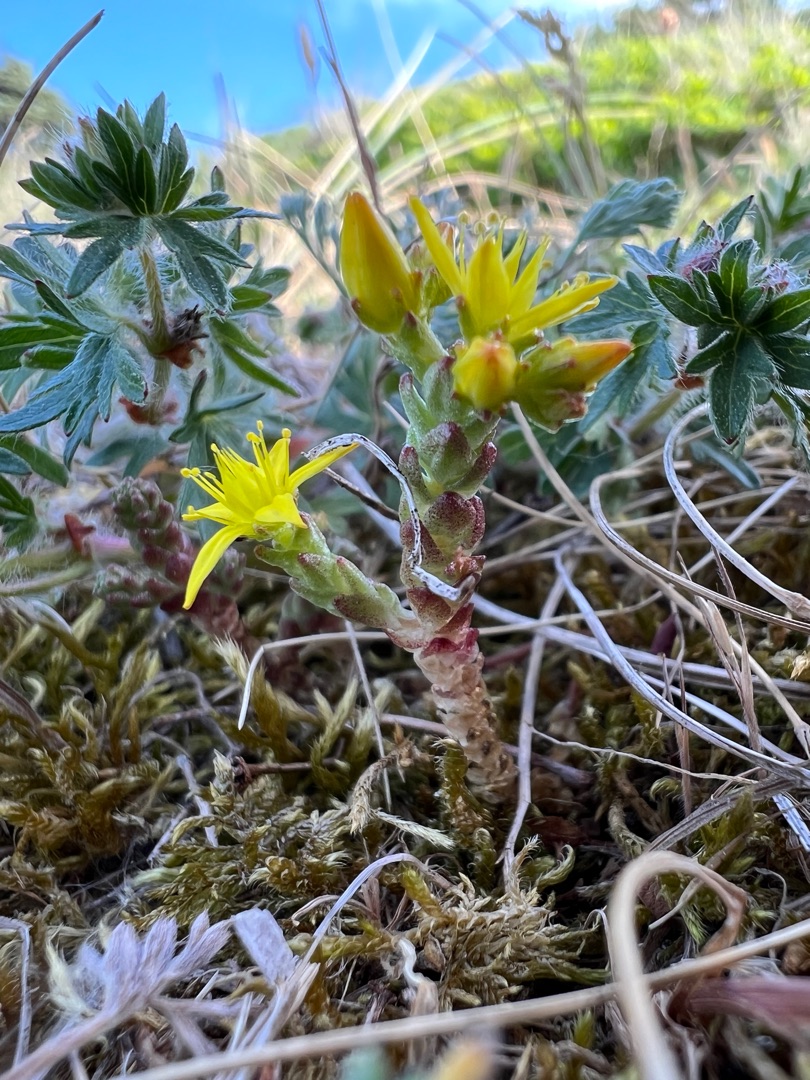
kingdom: Plantae
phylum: Tracheophyta
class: Magnoliopsida
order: Saxifragales
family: Crassulaceae
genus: Sedum
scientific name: Sedum acre
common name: Bidende stenurt
